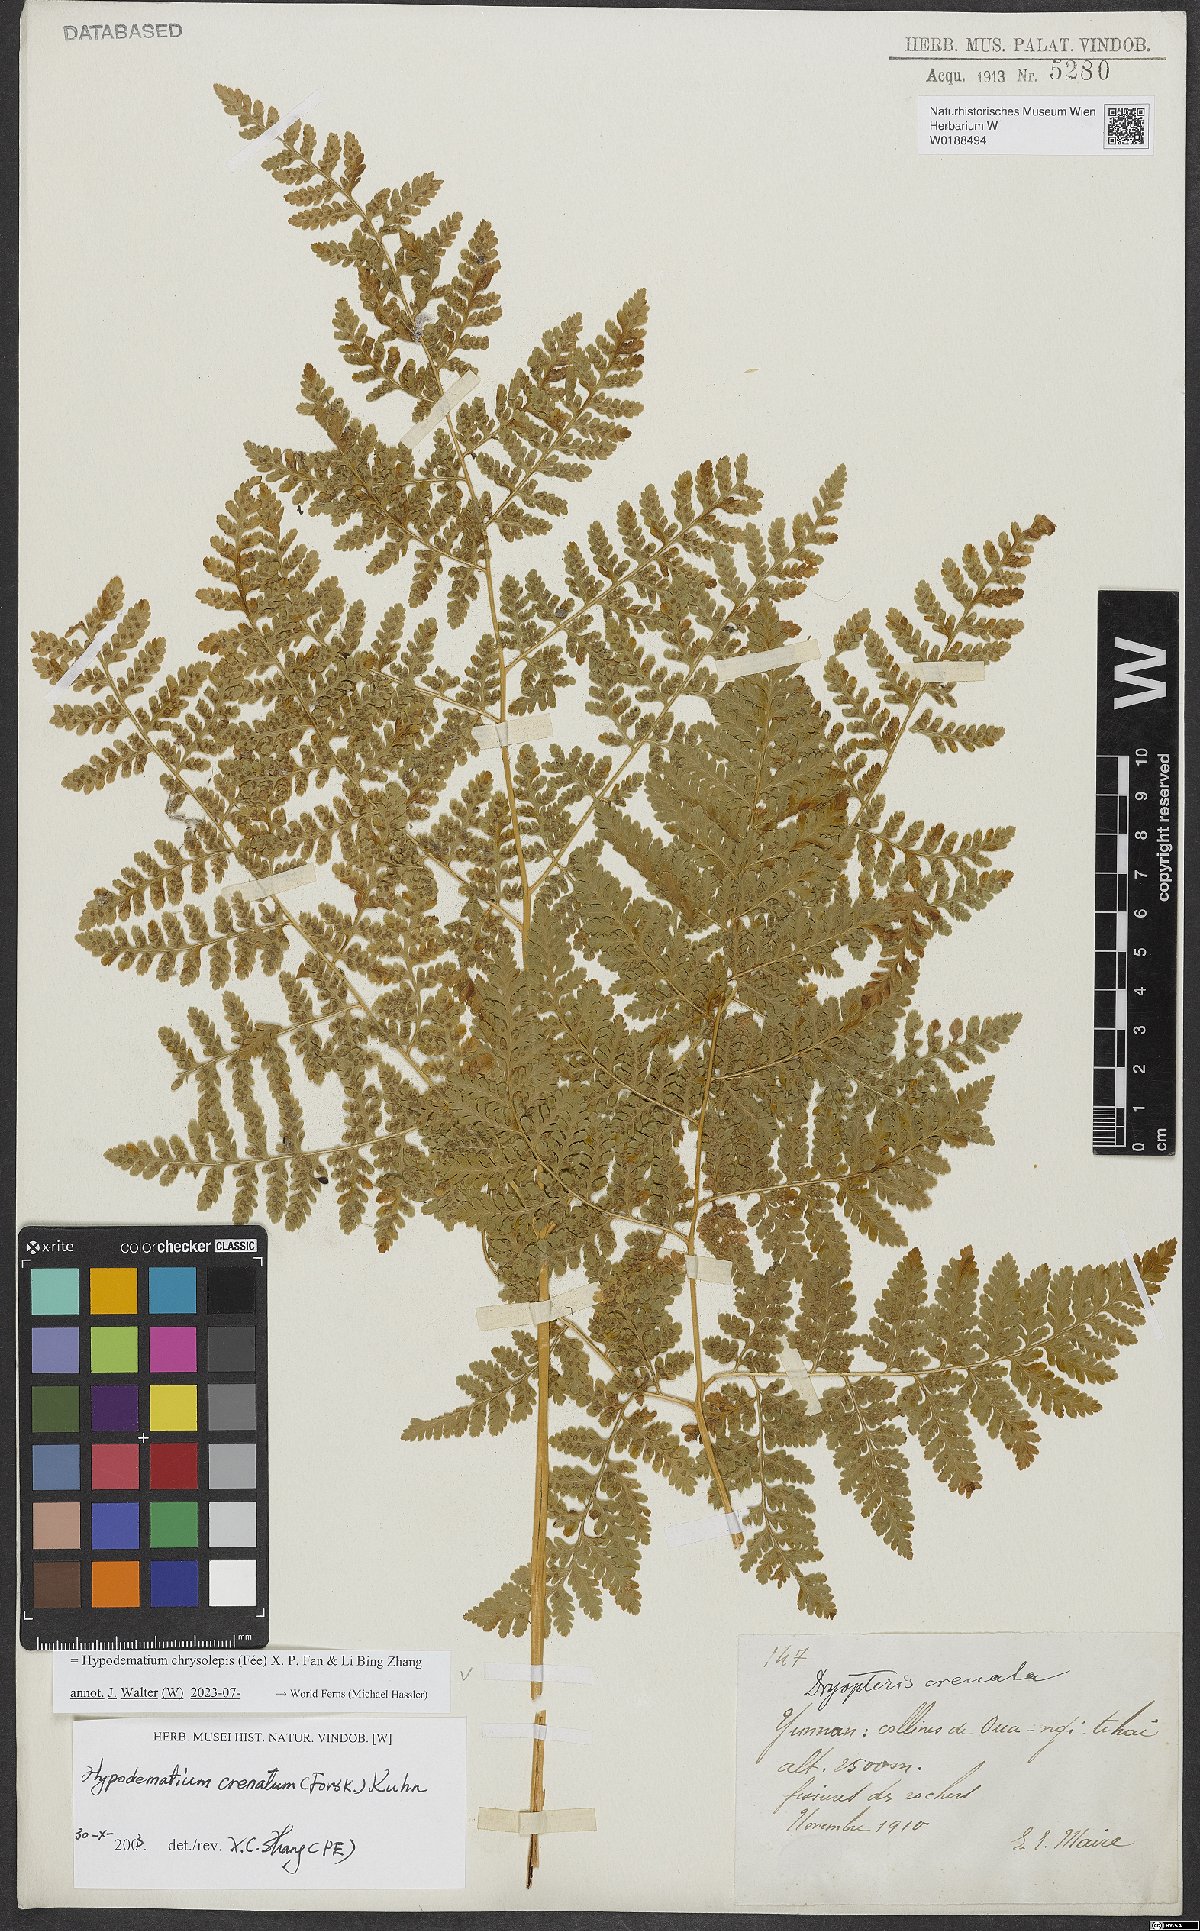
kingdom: Plantae
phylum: Tracheophyta
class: Polypodiopsida
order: Polypodiales
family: Hypodematiaceae
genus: Hypodematium
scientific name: Hypodematium chrysolepis
